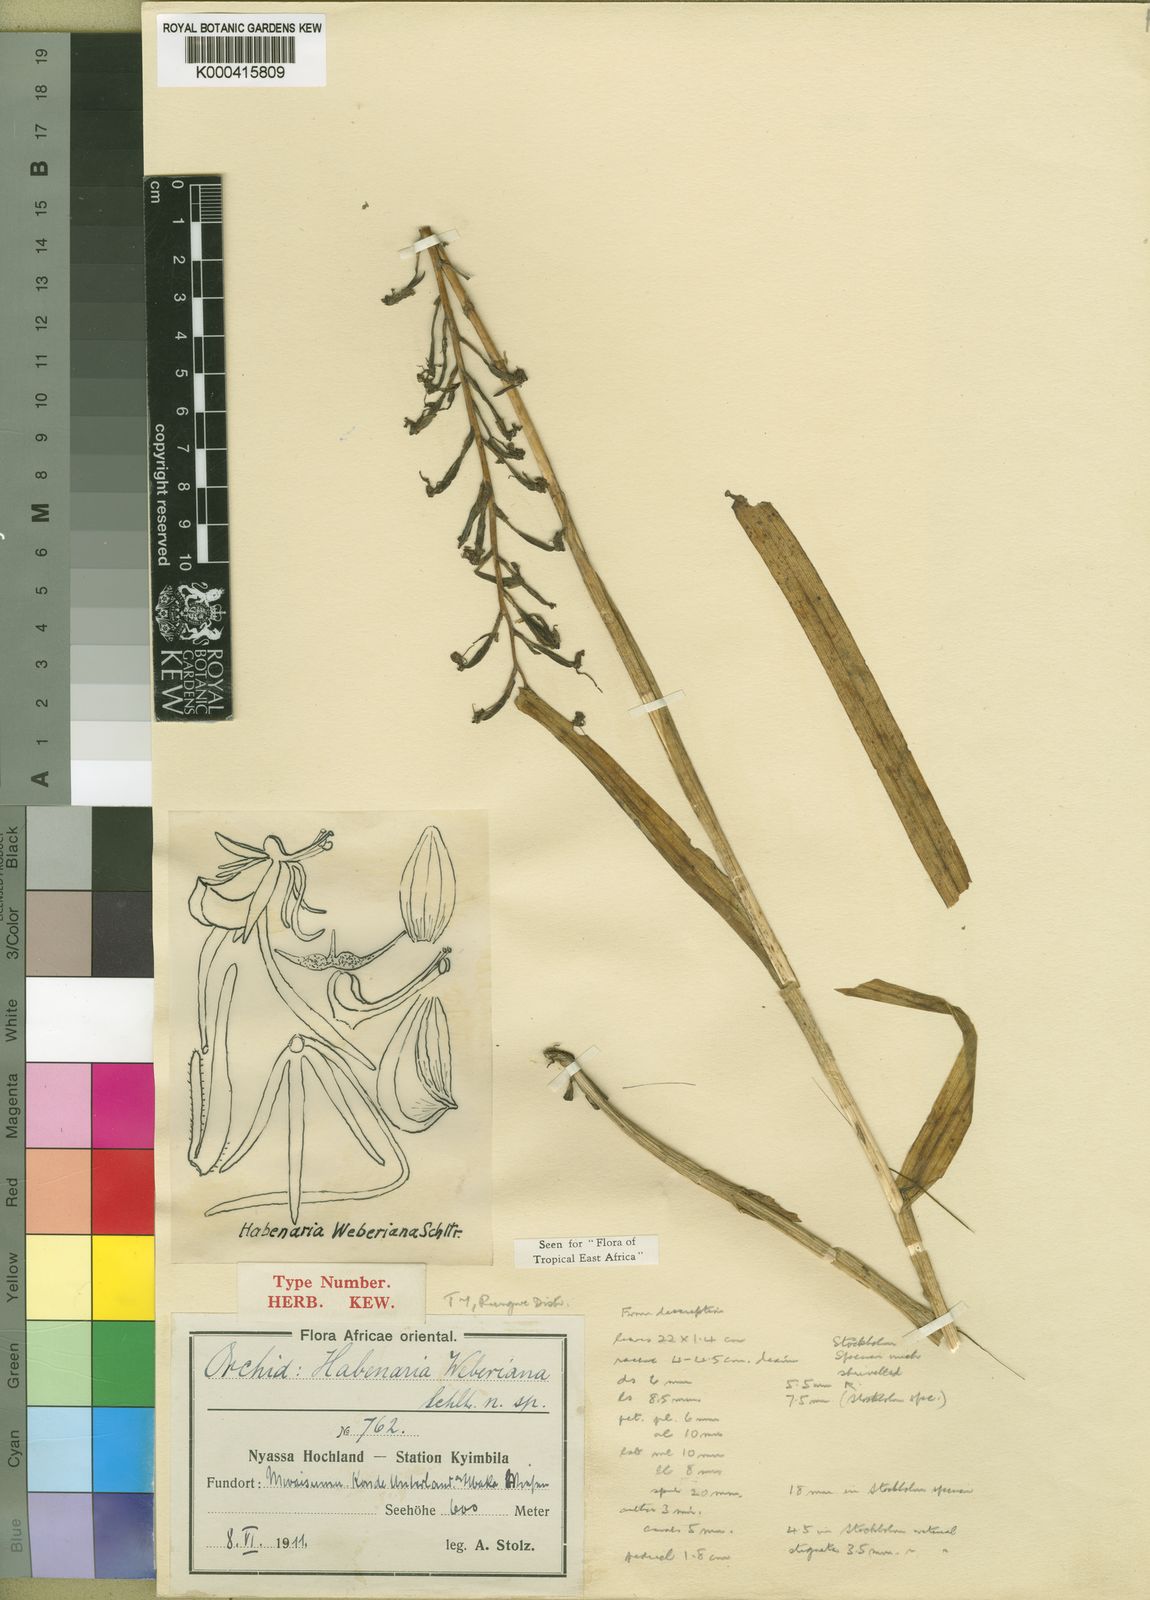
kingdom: Plantae
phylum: Tracheophyta
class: Liliopsida
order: Asparagales
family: Orchidaceae
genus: Habenaria
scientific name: Habenaria weberiana
